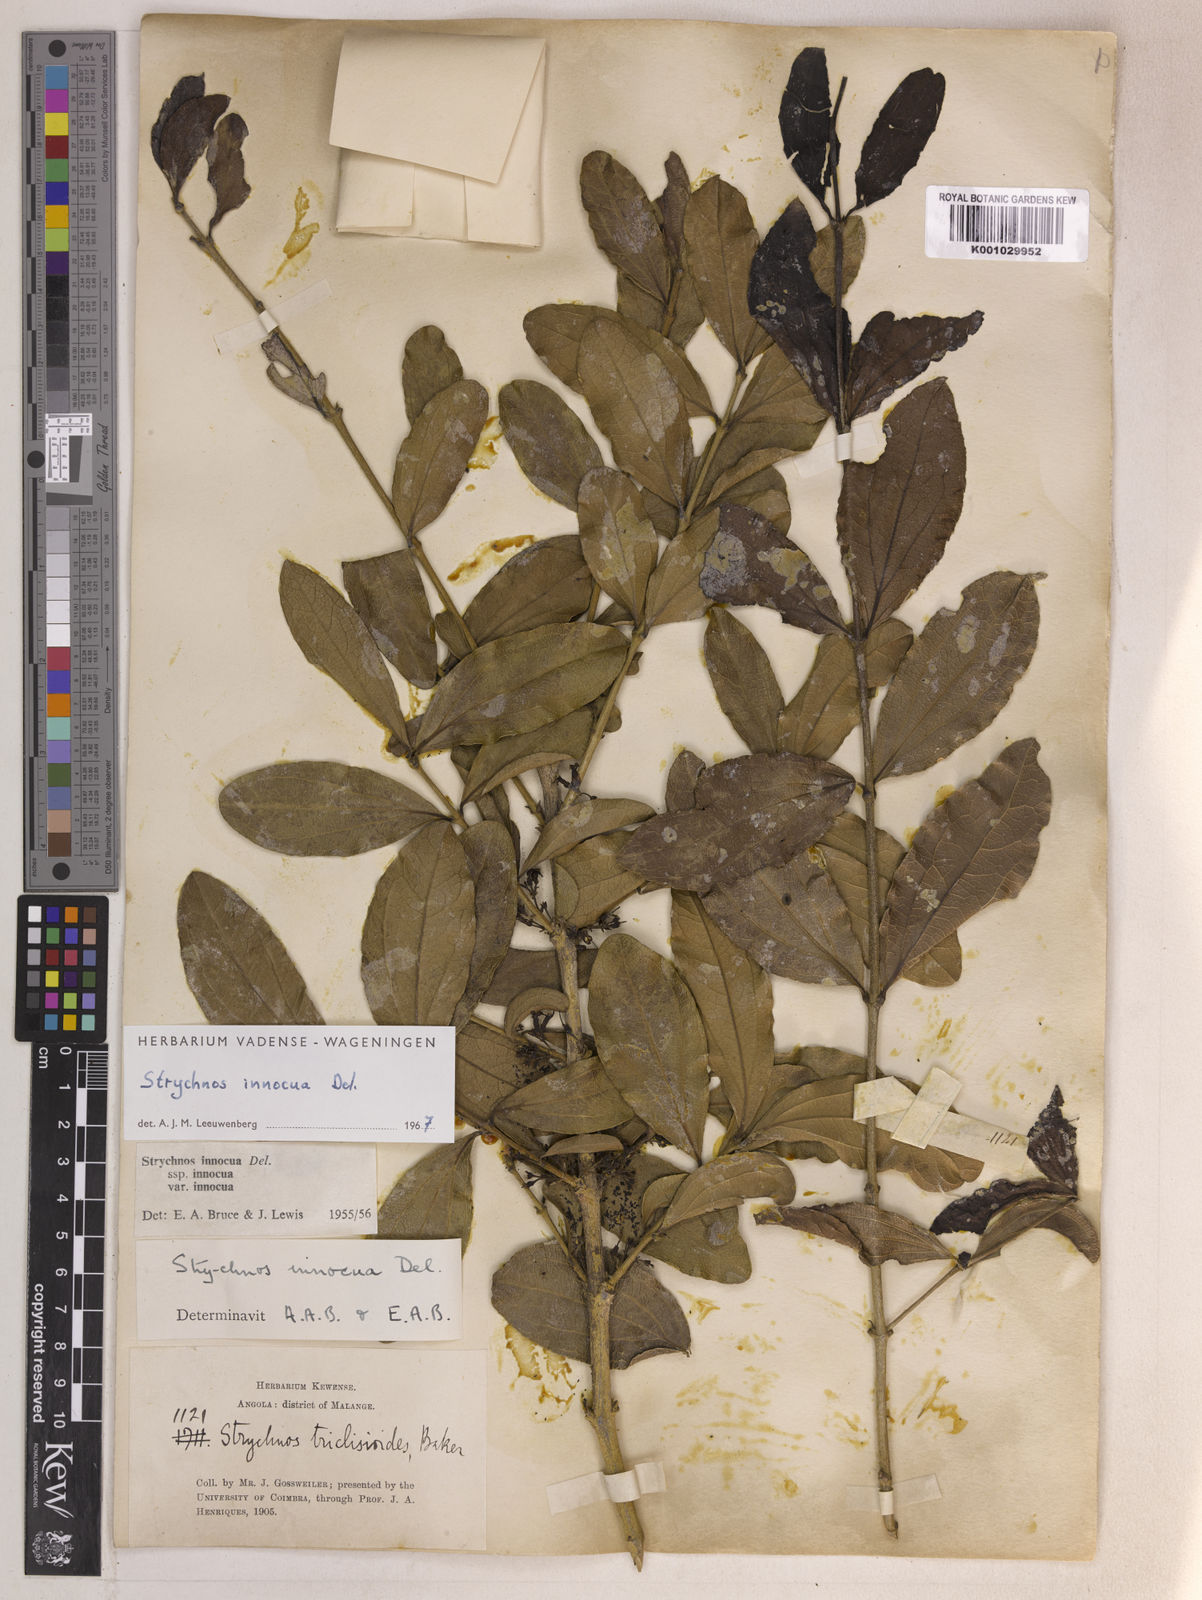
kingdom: Plantae
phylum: Tracheophyta
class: Magnoliopsida
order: Gentianales
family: Loganiaceae
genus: Strychnos
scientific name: Strychnos innocua
